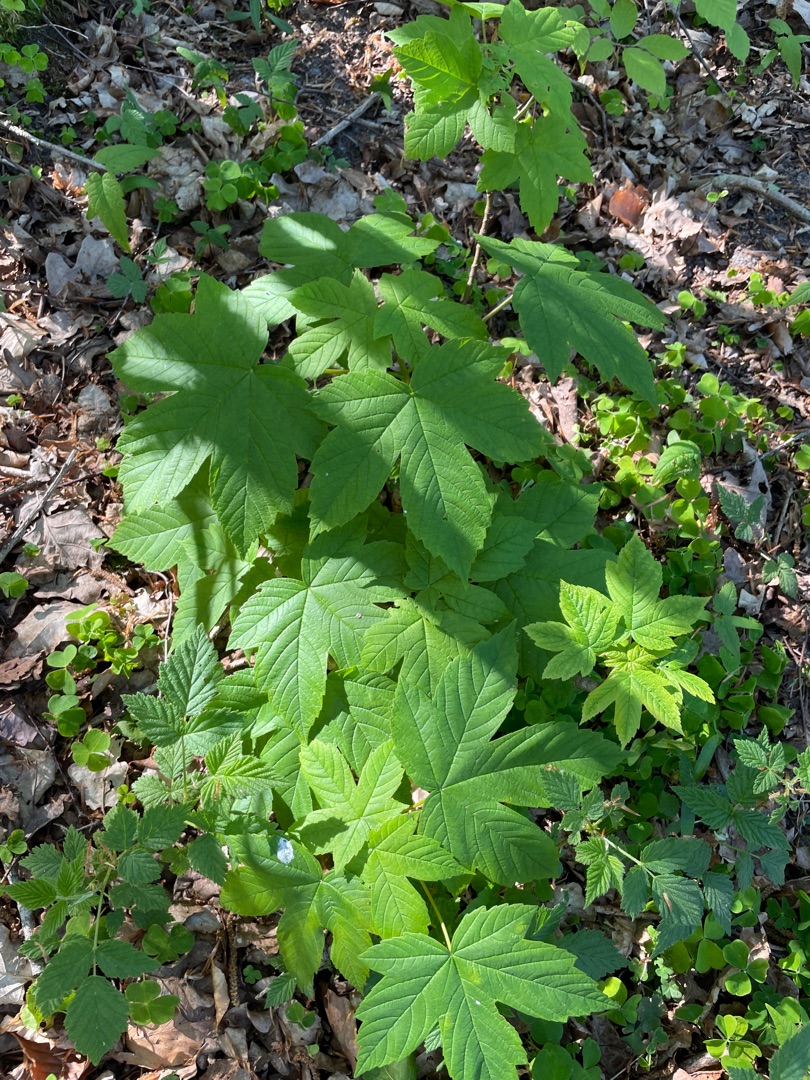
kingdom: Plantae
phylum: Tracheophyta
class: Magnoliopsida
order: Sapindales
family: Sapindaceae
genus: Acer
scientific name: Acer pseudoplatanus
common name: Ahorn
